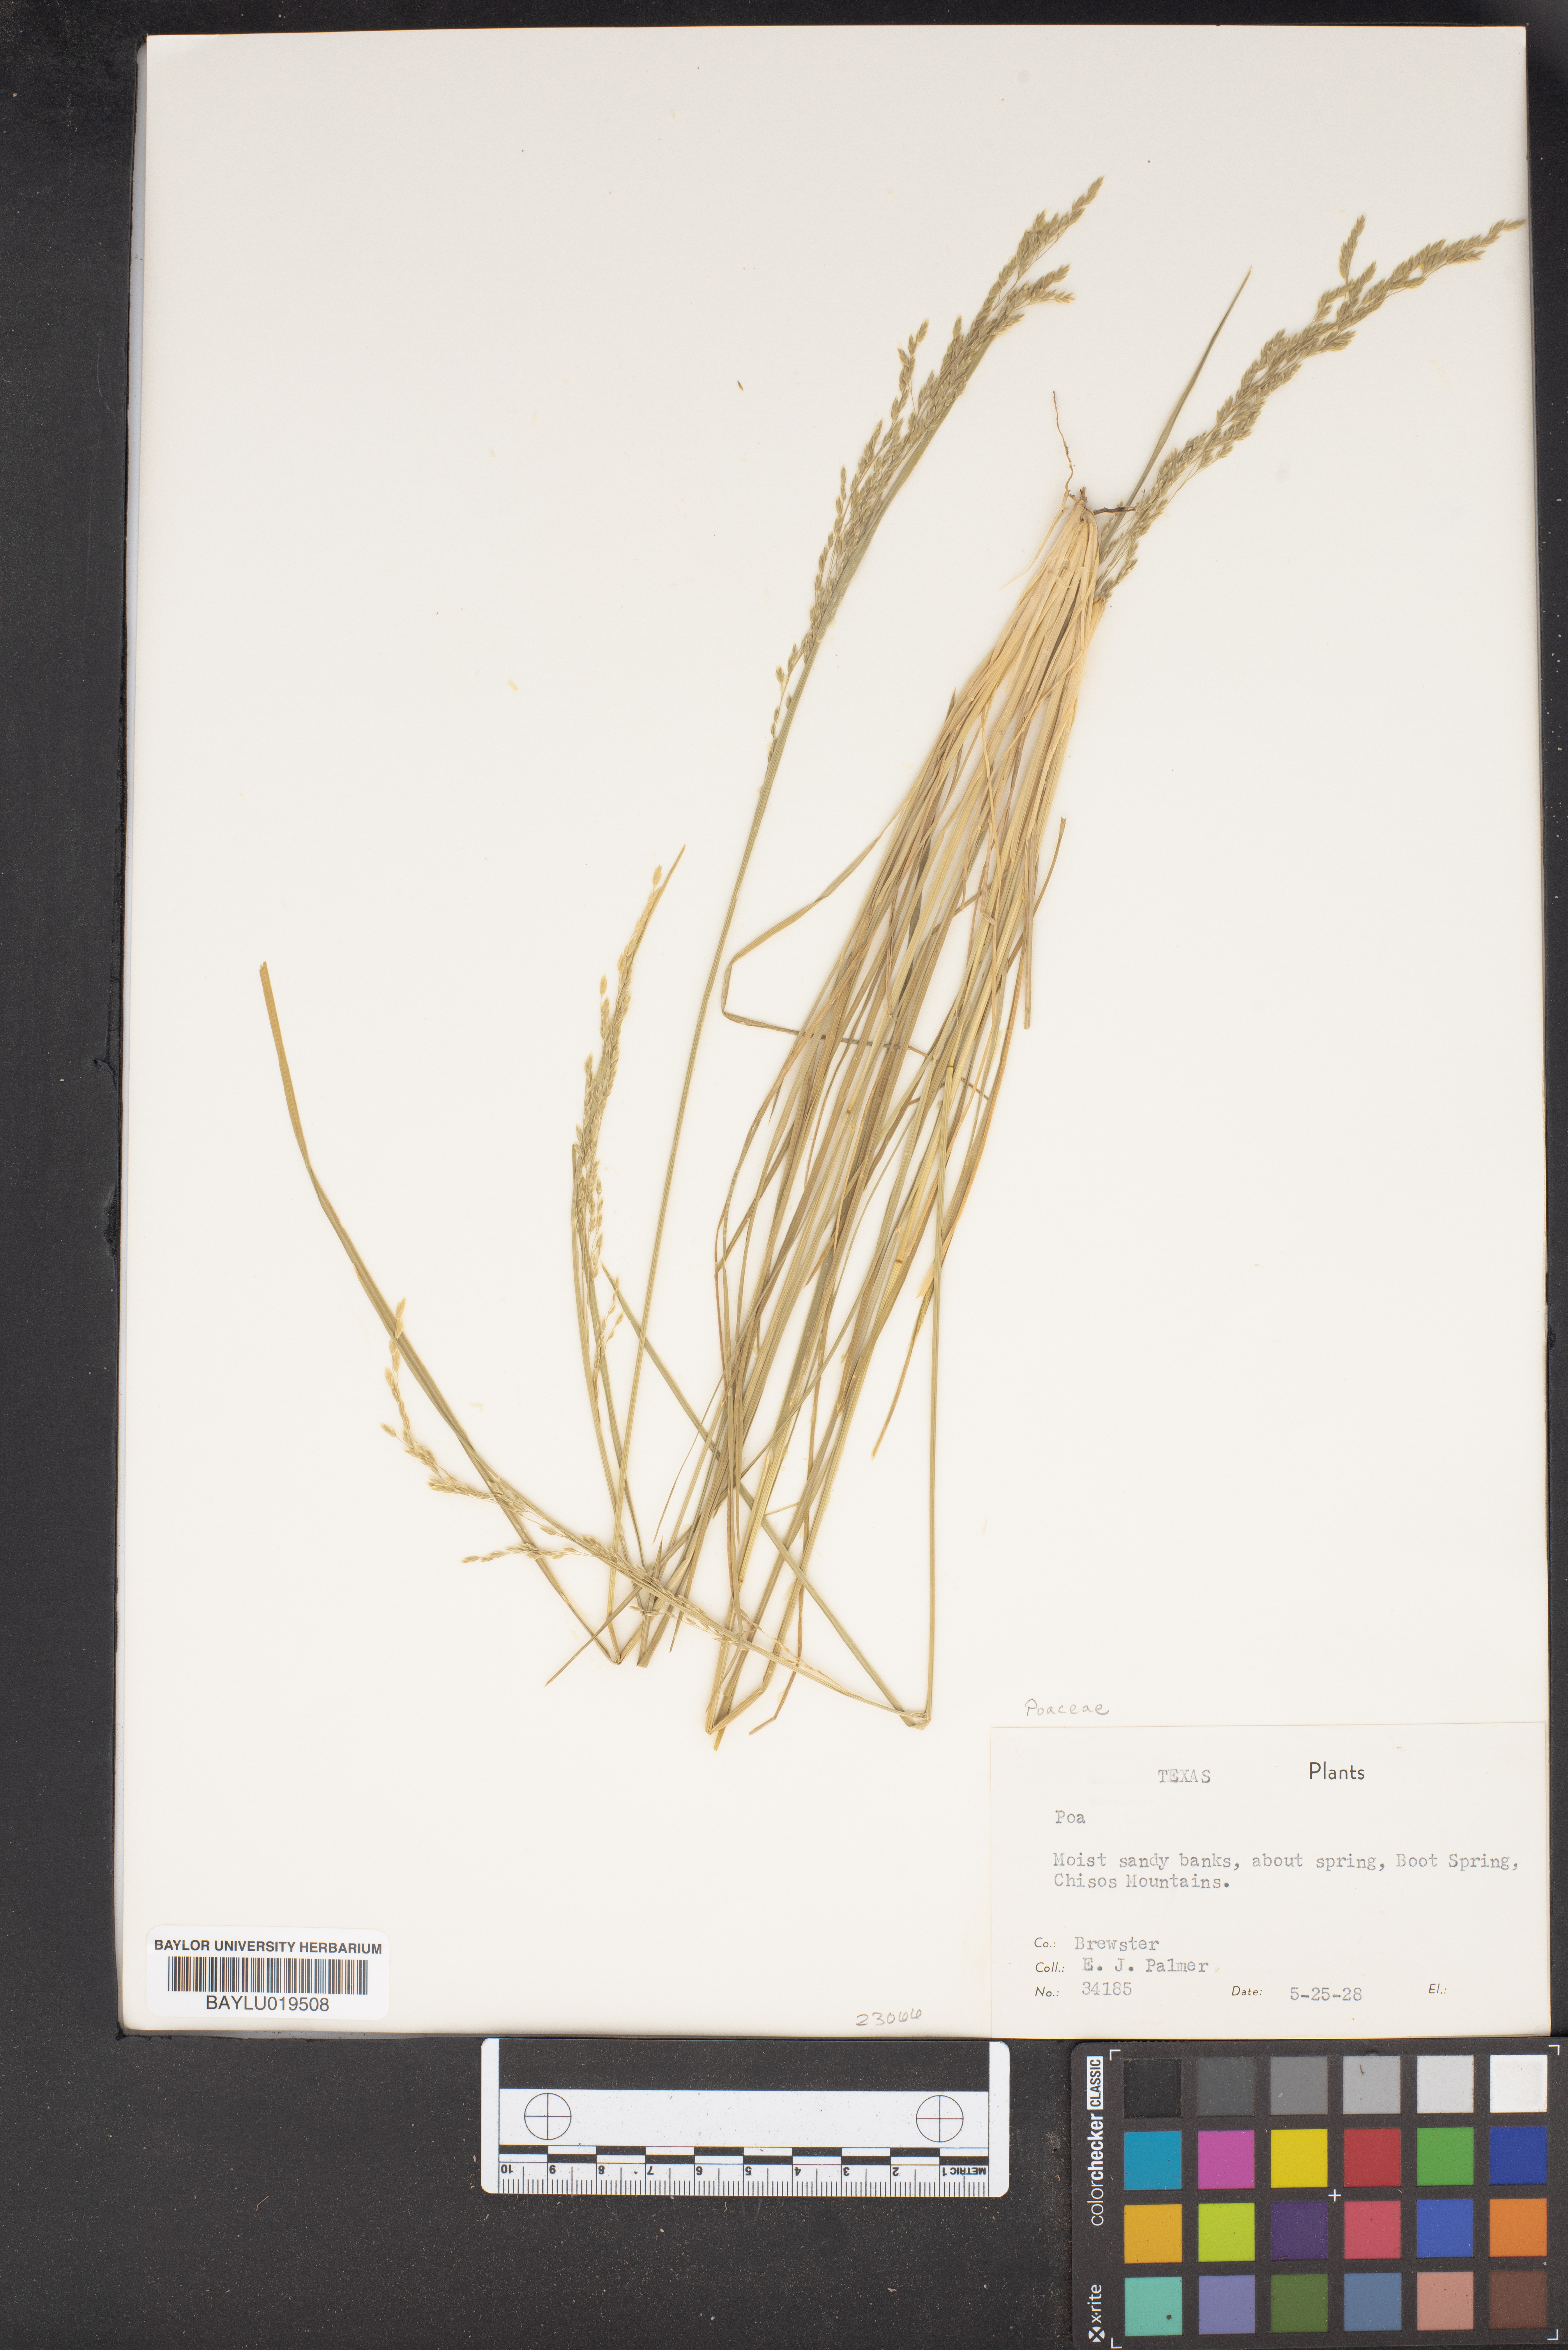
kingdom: Plantae
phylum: Tracheophyta
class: Liliopsida
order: Poales
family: Poaceae
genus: Poa
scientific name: Poa
